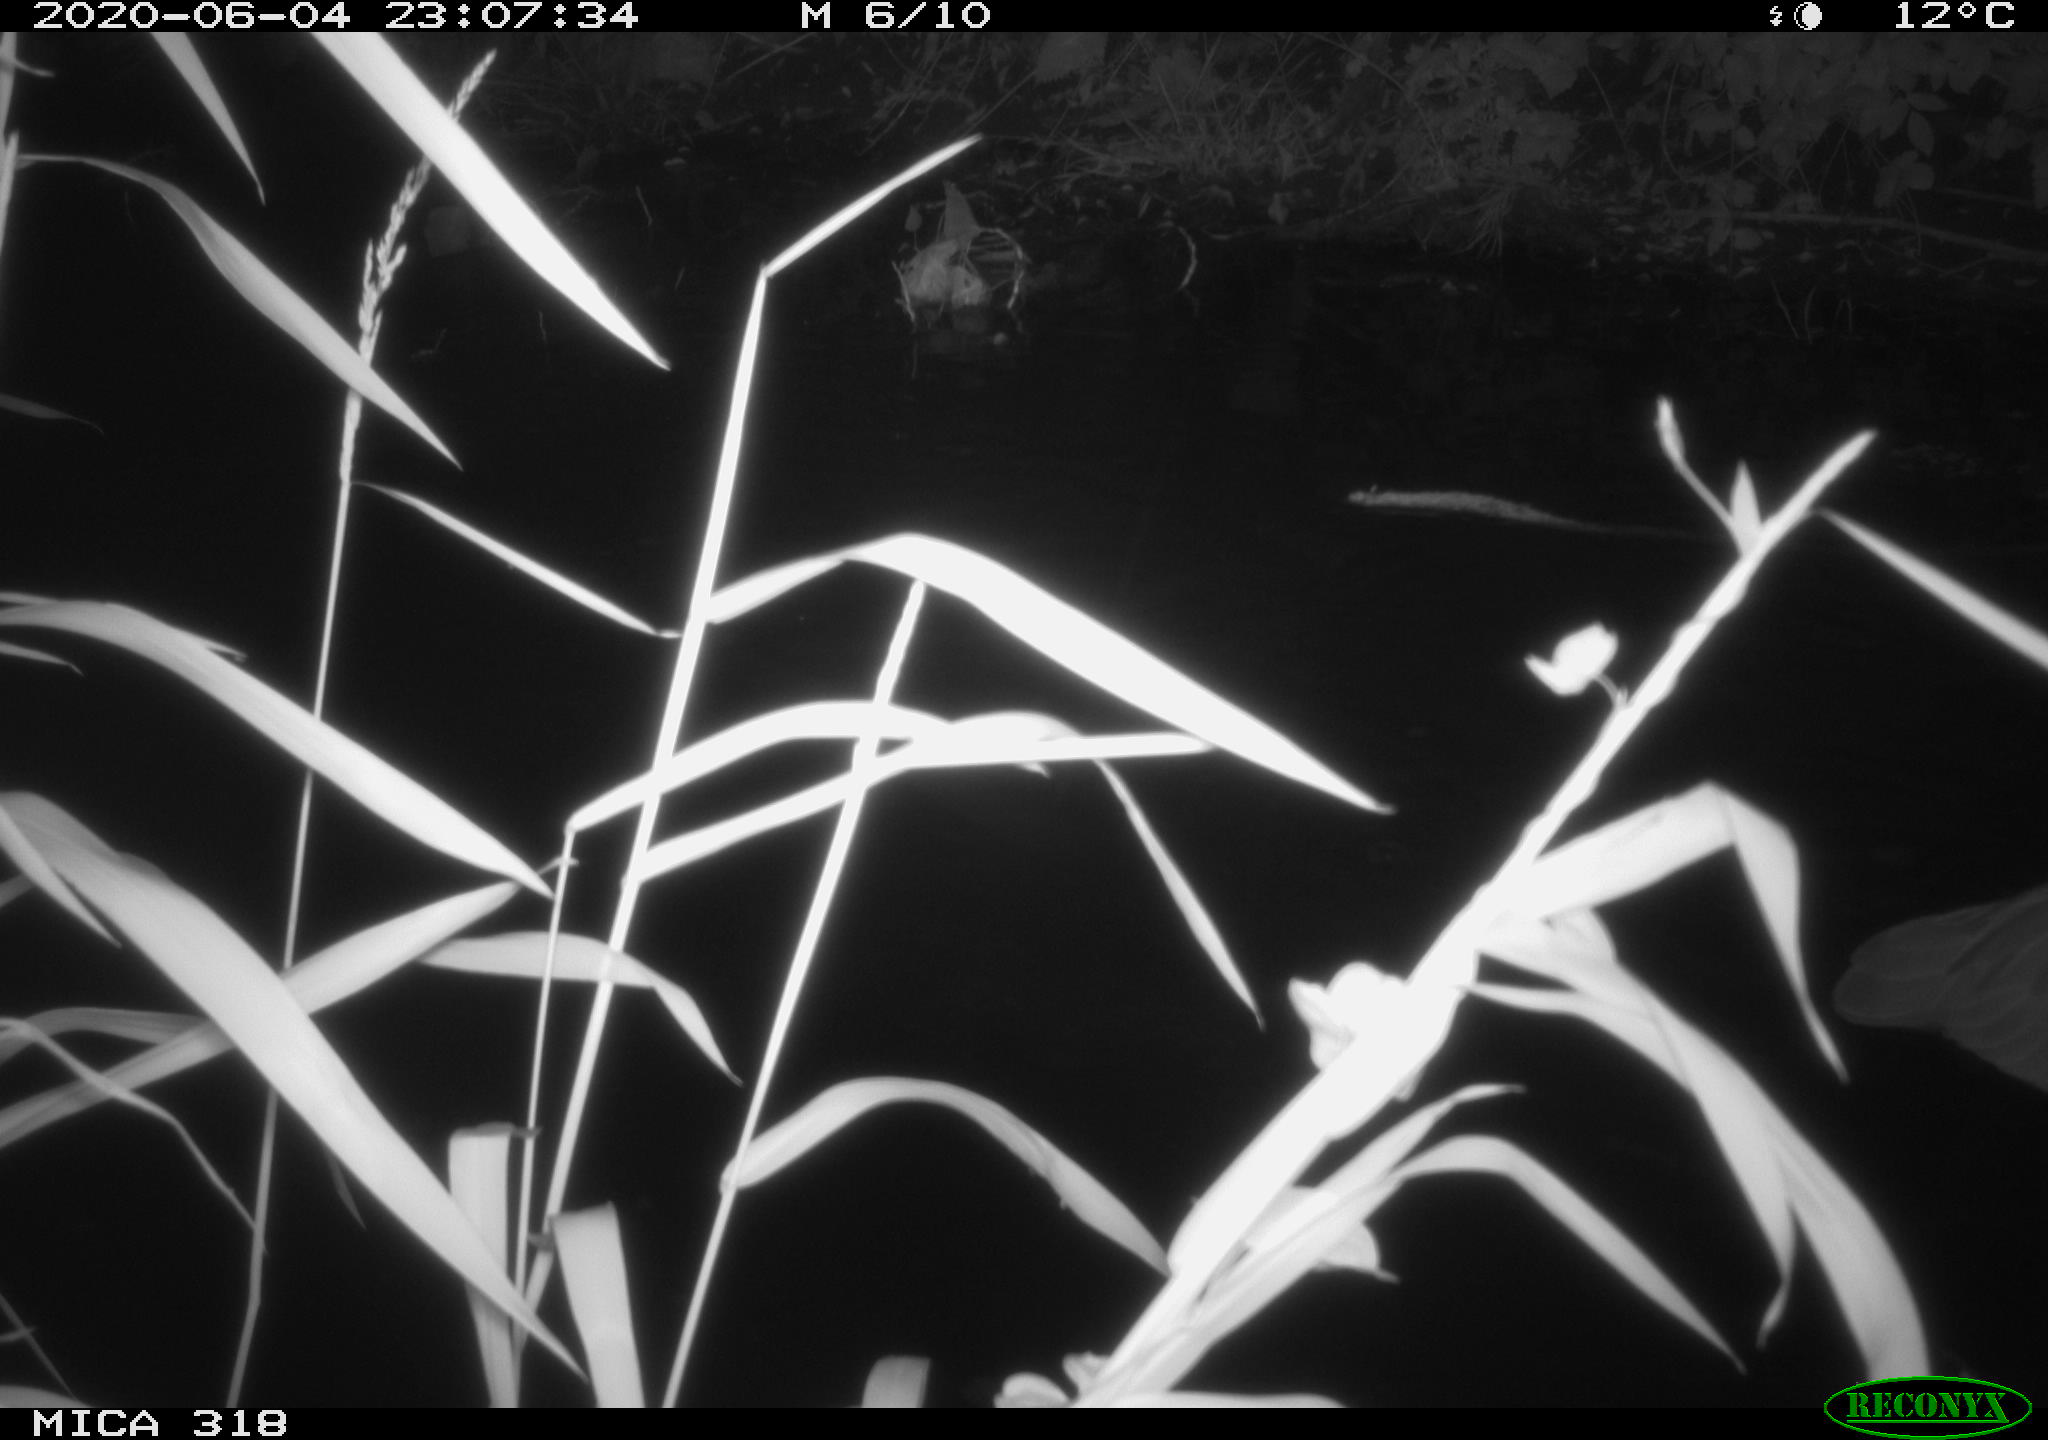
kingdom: Animalia
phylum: Chordata
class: Aves
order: Pelecaniformes
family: Ardeidae
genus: Ardea
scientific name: Ardea cinerea
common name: Grey heron
